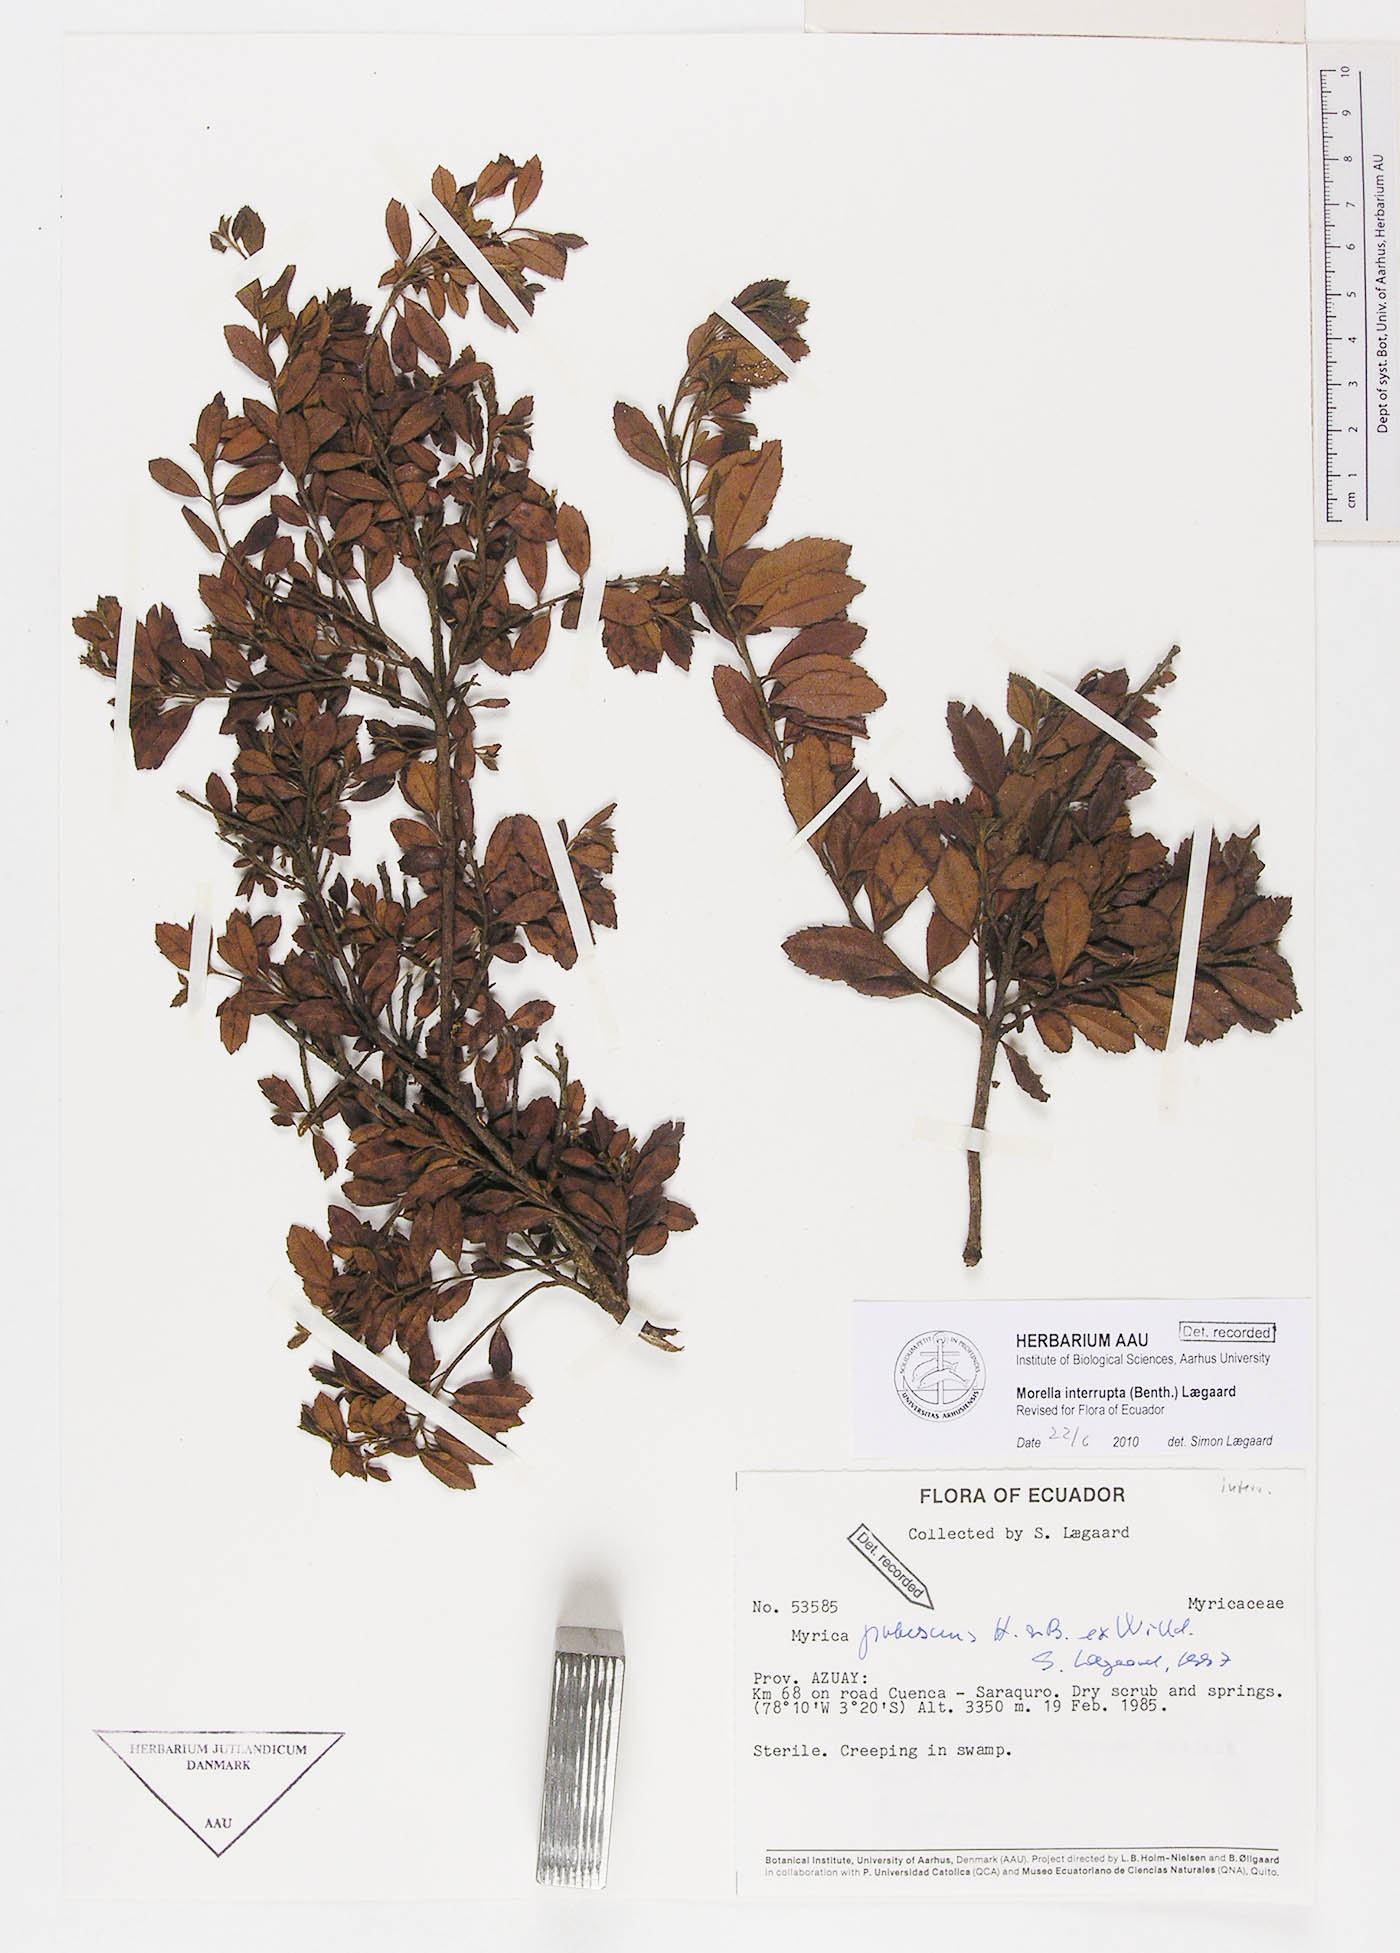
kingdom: Plantae
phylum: Tracheophyta
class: Magnoliopsida
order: Fagales
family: Myricaceae
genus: Morella
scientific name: Morella interrupta
